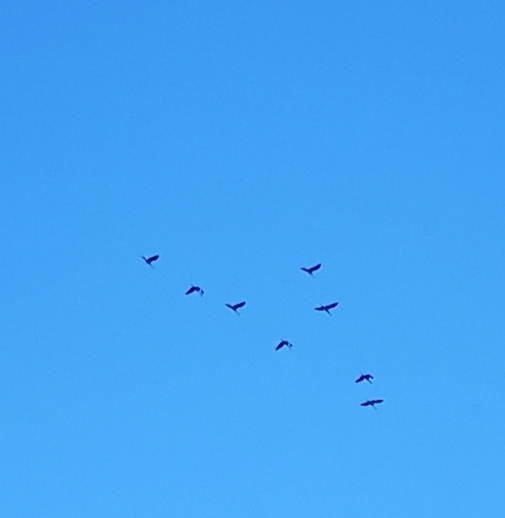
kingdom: Animalia
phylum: Chordata
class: Aves
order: Gruiformes
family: Gruidae
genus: Grus
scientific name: Grus grus
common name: Trane
